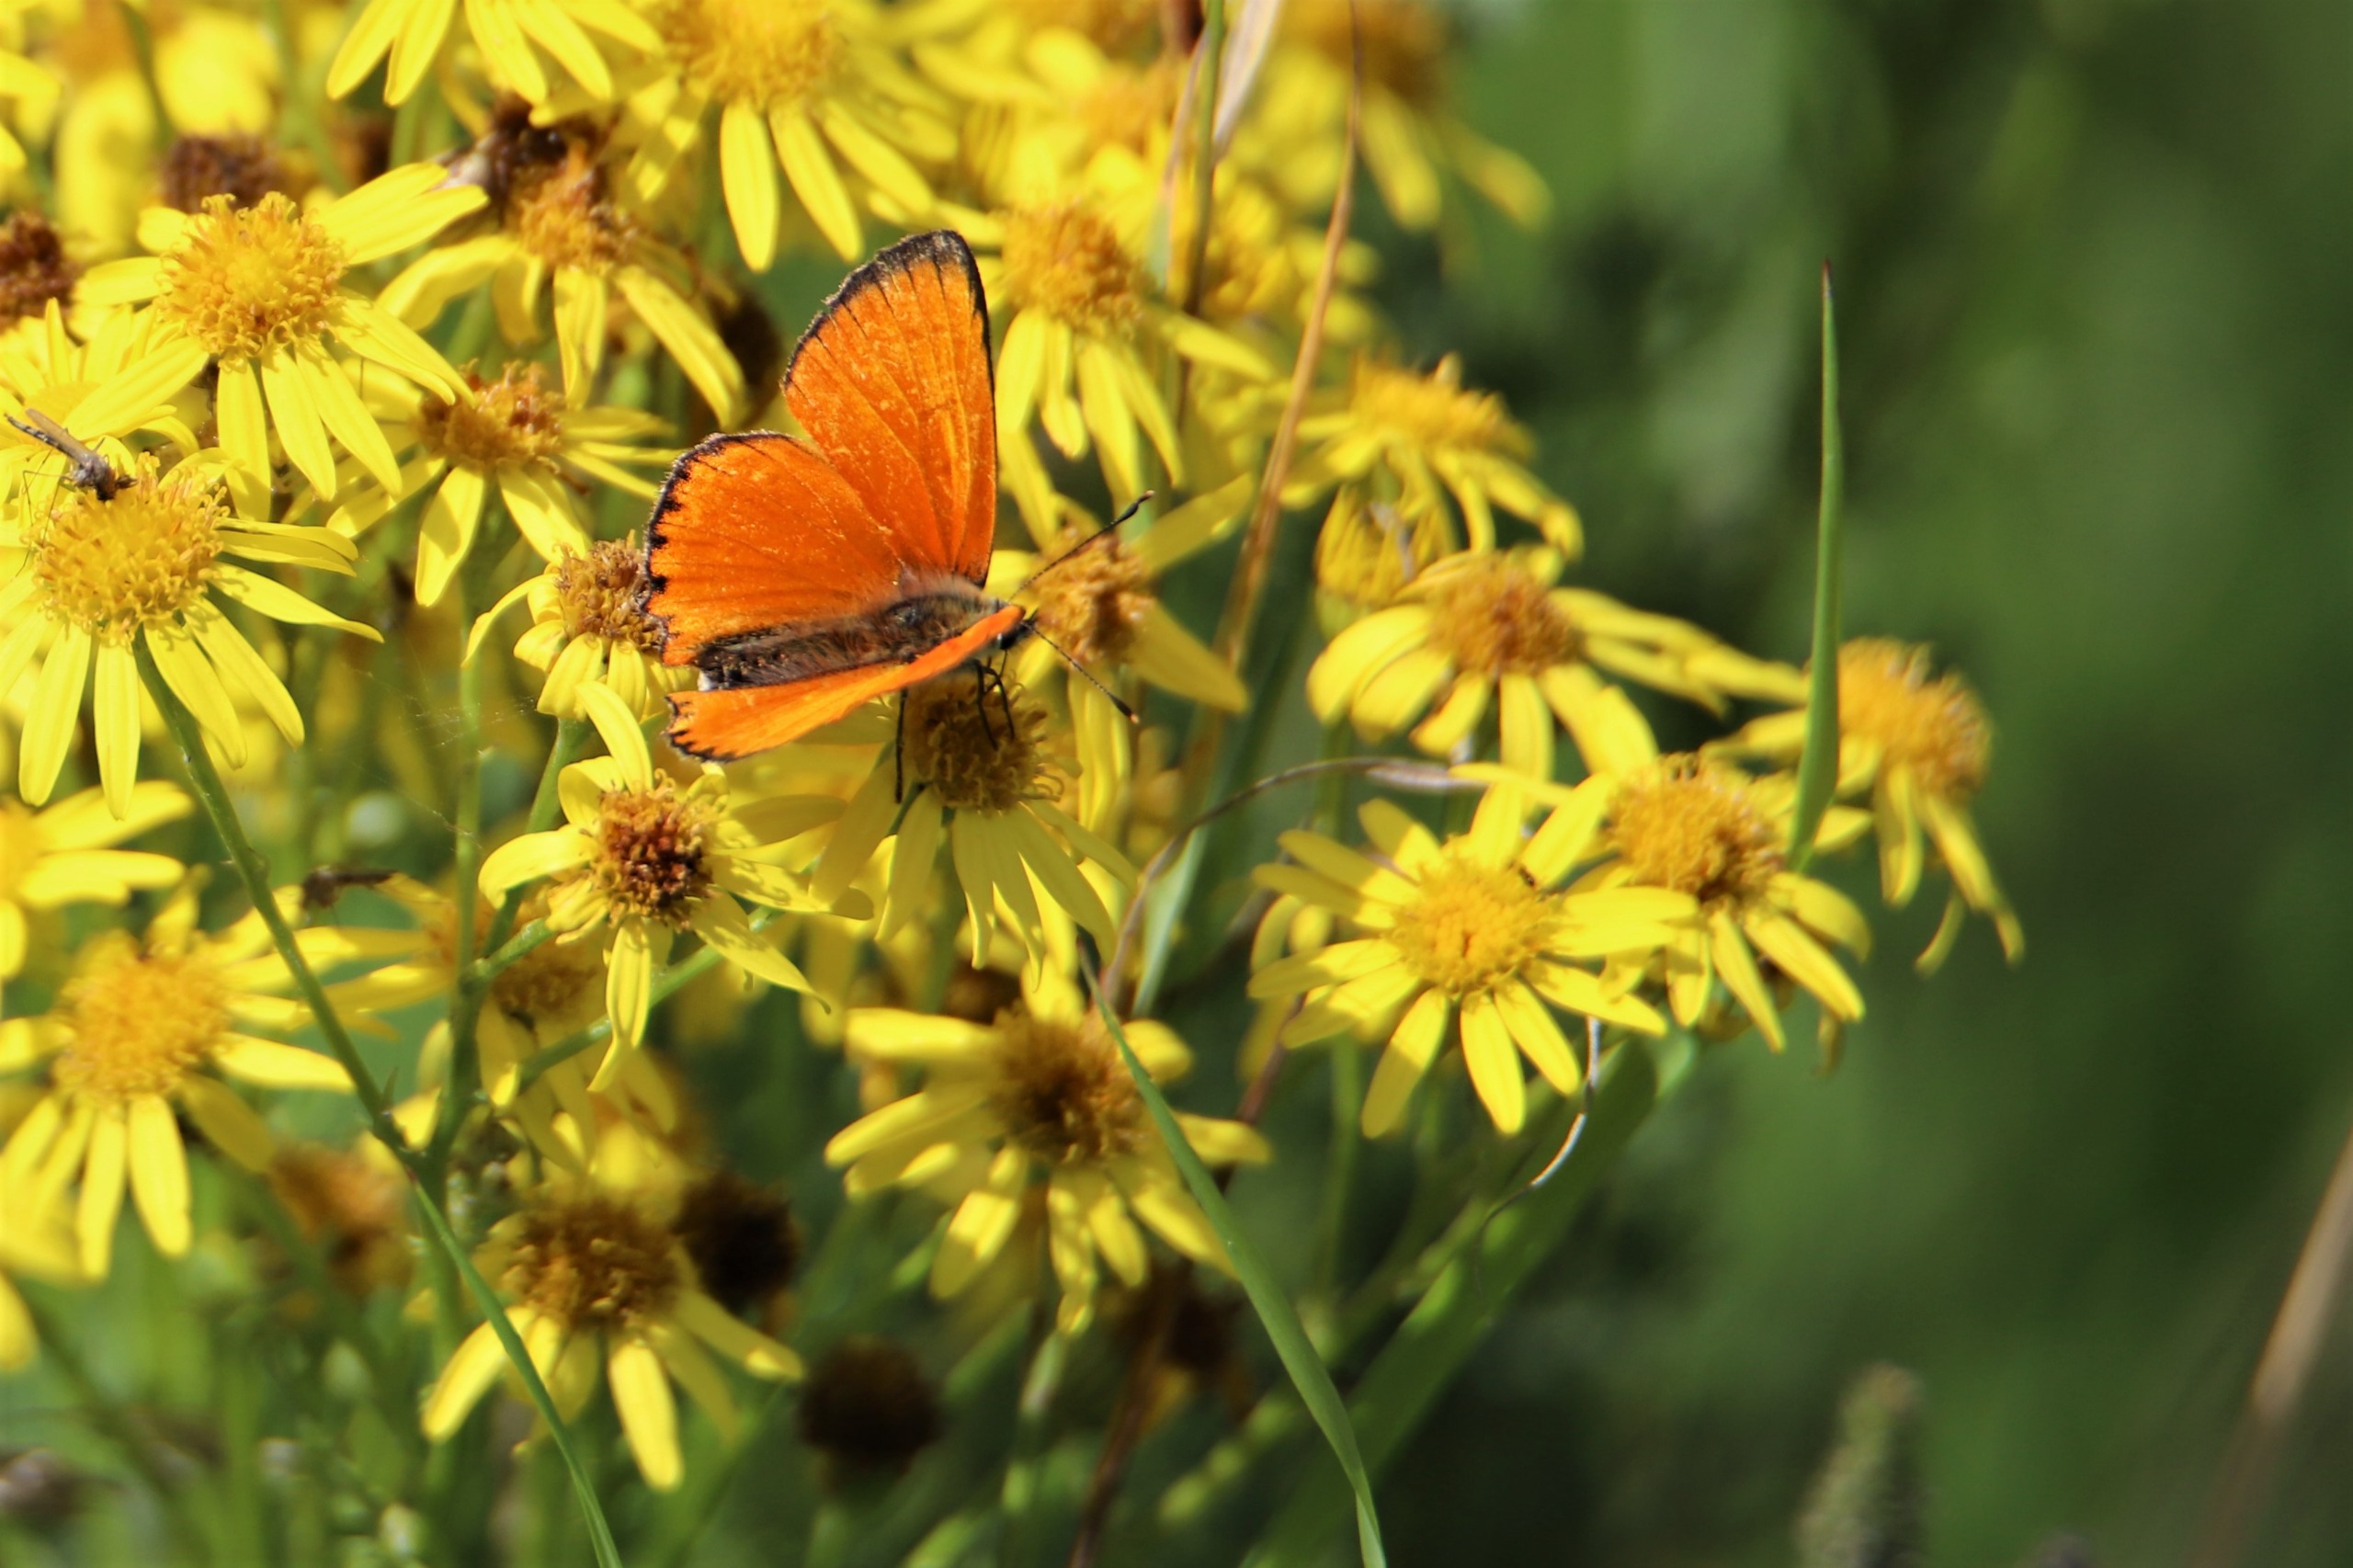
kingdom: Animalia
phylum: Arthropoda
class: Insecta
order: Lepidoptera
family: Lycaenidae
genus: Lycaena
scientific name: Lycaena virgaureae
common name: Dukatsommerfugl
